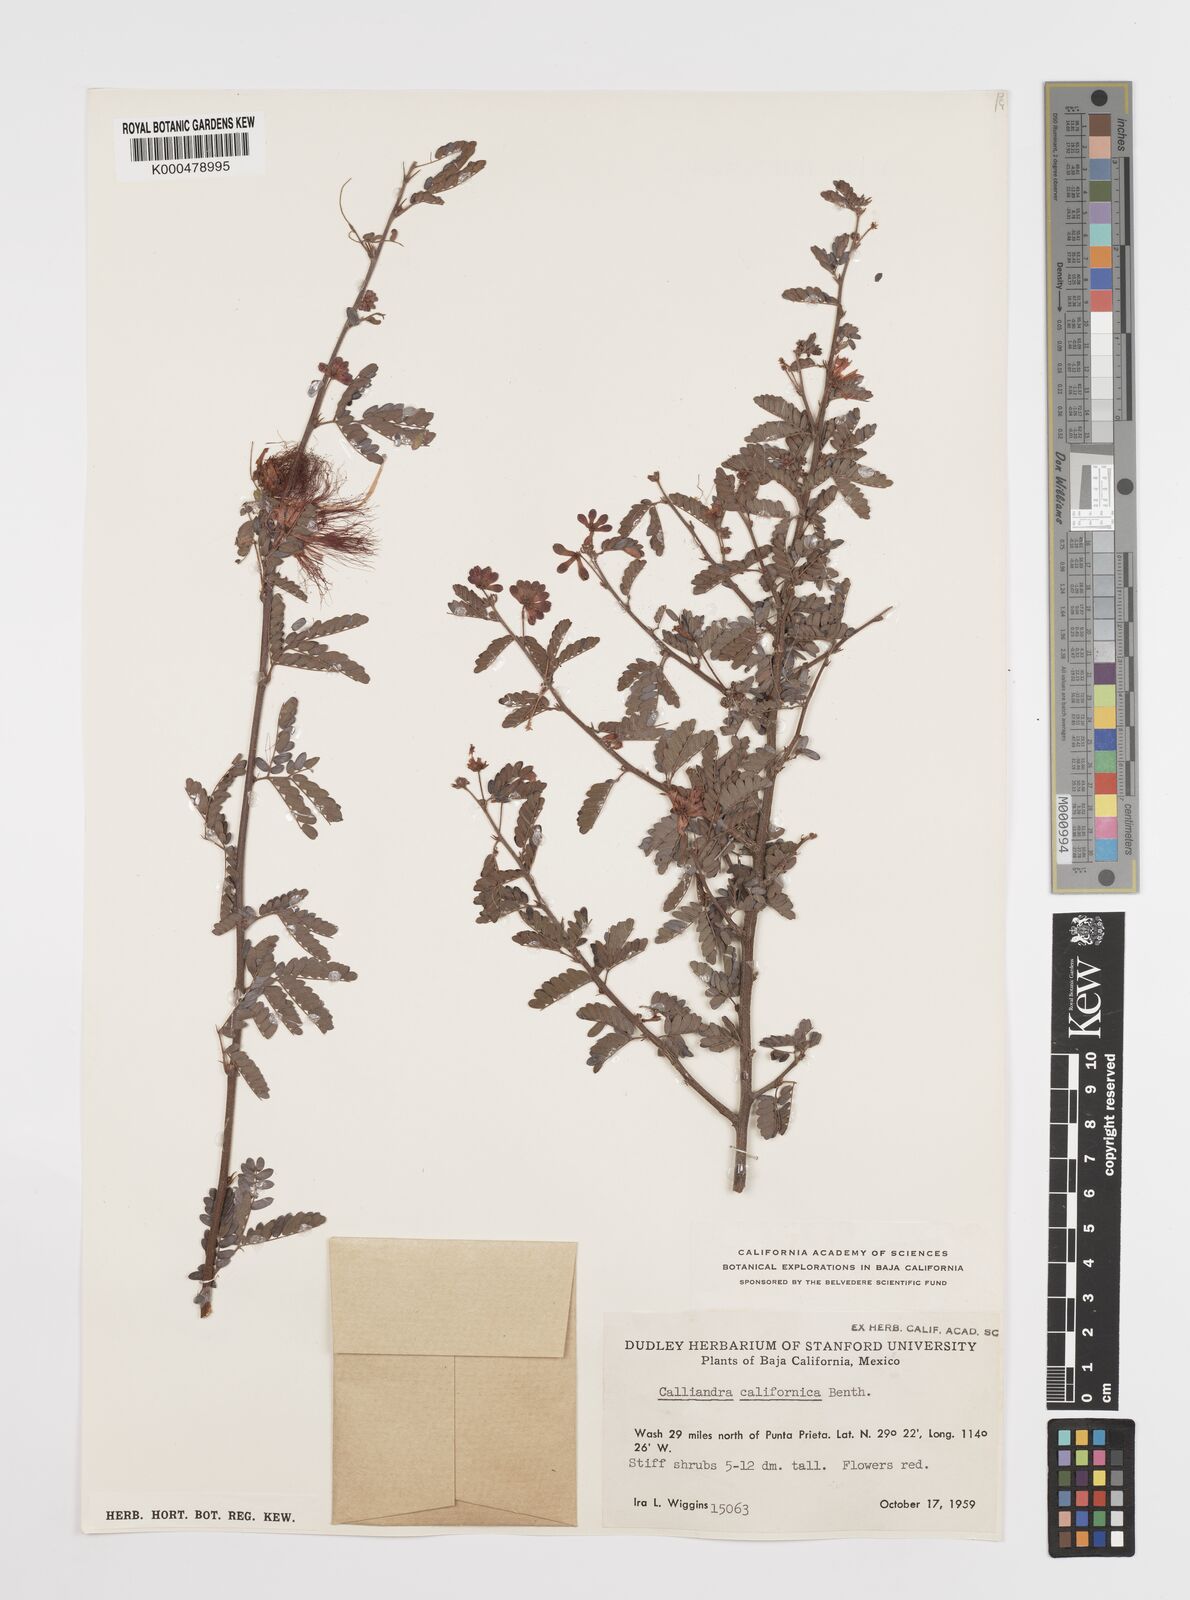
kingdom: Plantae
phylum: Tracheophyta
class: Magnoliopsida
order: Fabales
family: Fabaceae
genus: Calliandra
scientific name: Calliandra californica
